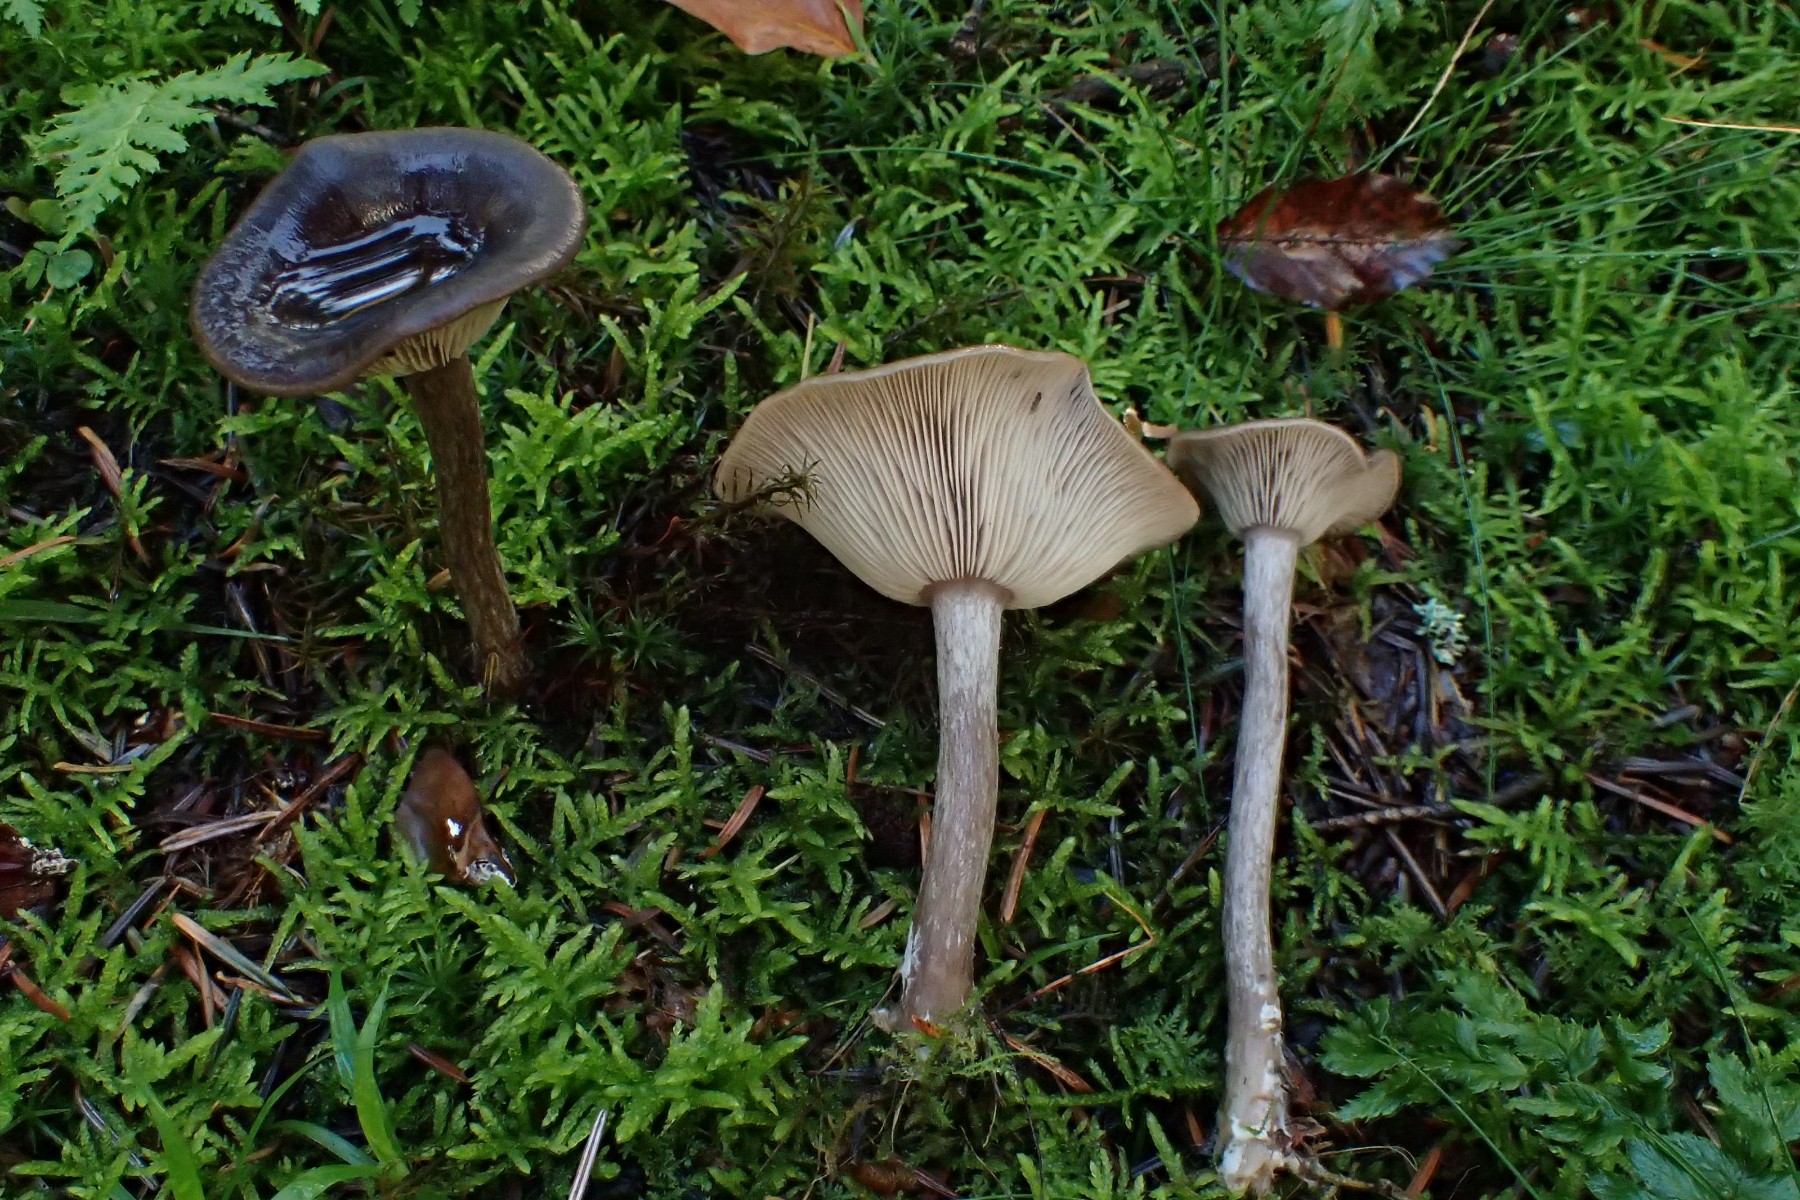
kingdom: Fungi
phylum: Basidiomycota
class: Agaricomycetes
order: Agaricales
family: Pseudoclitocybaceae
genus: Pseudoclitocybe
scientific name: Pseudoclitocybe cyathiformis
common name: almindelig bægertragthat
